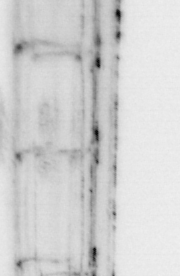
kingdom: Animalia
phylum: Chordata
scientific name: Chordata
